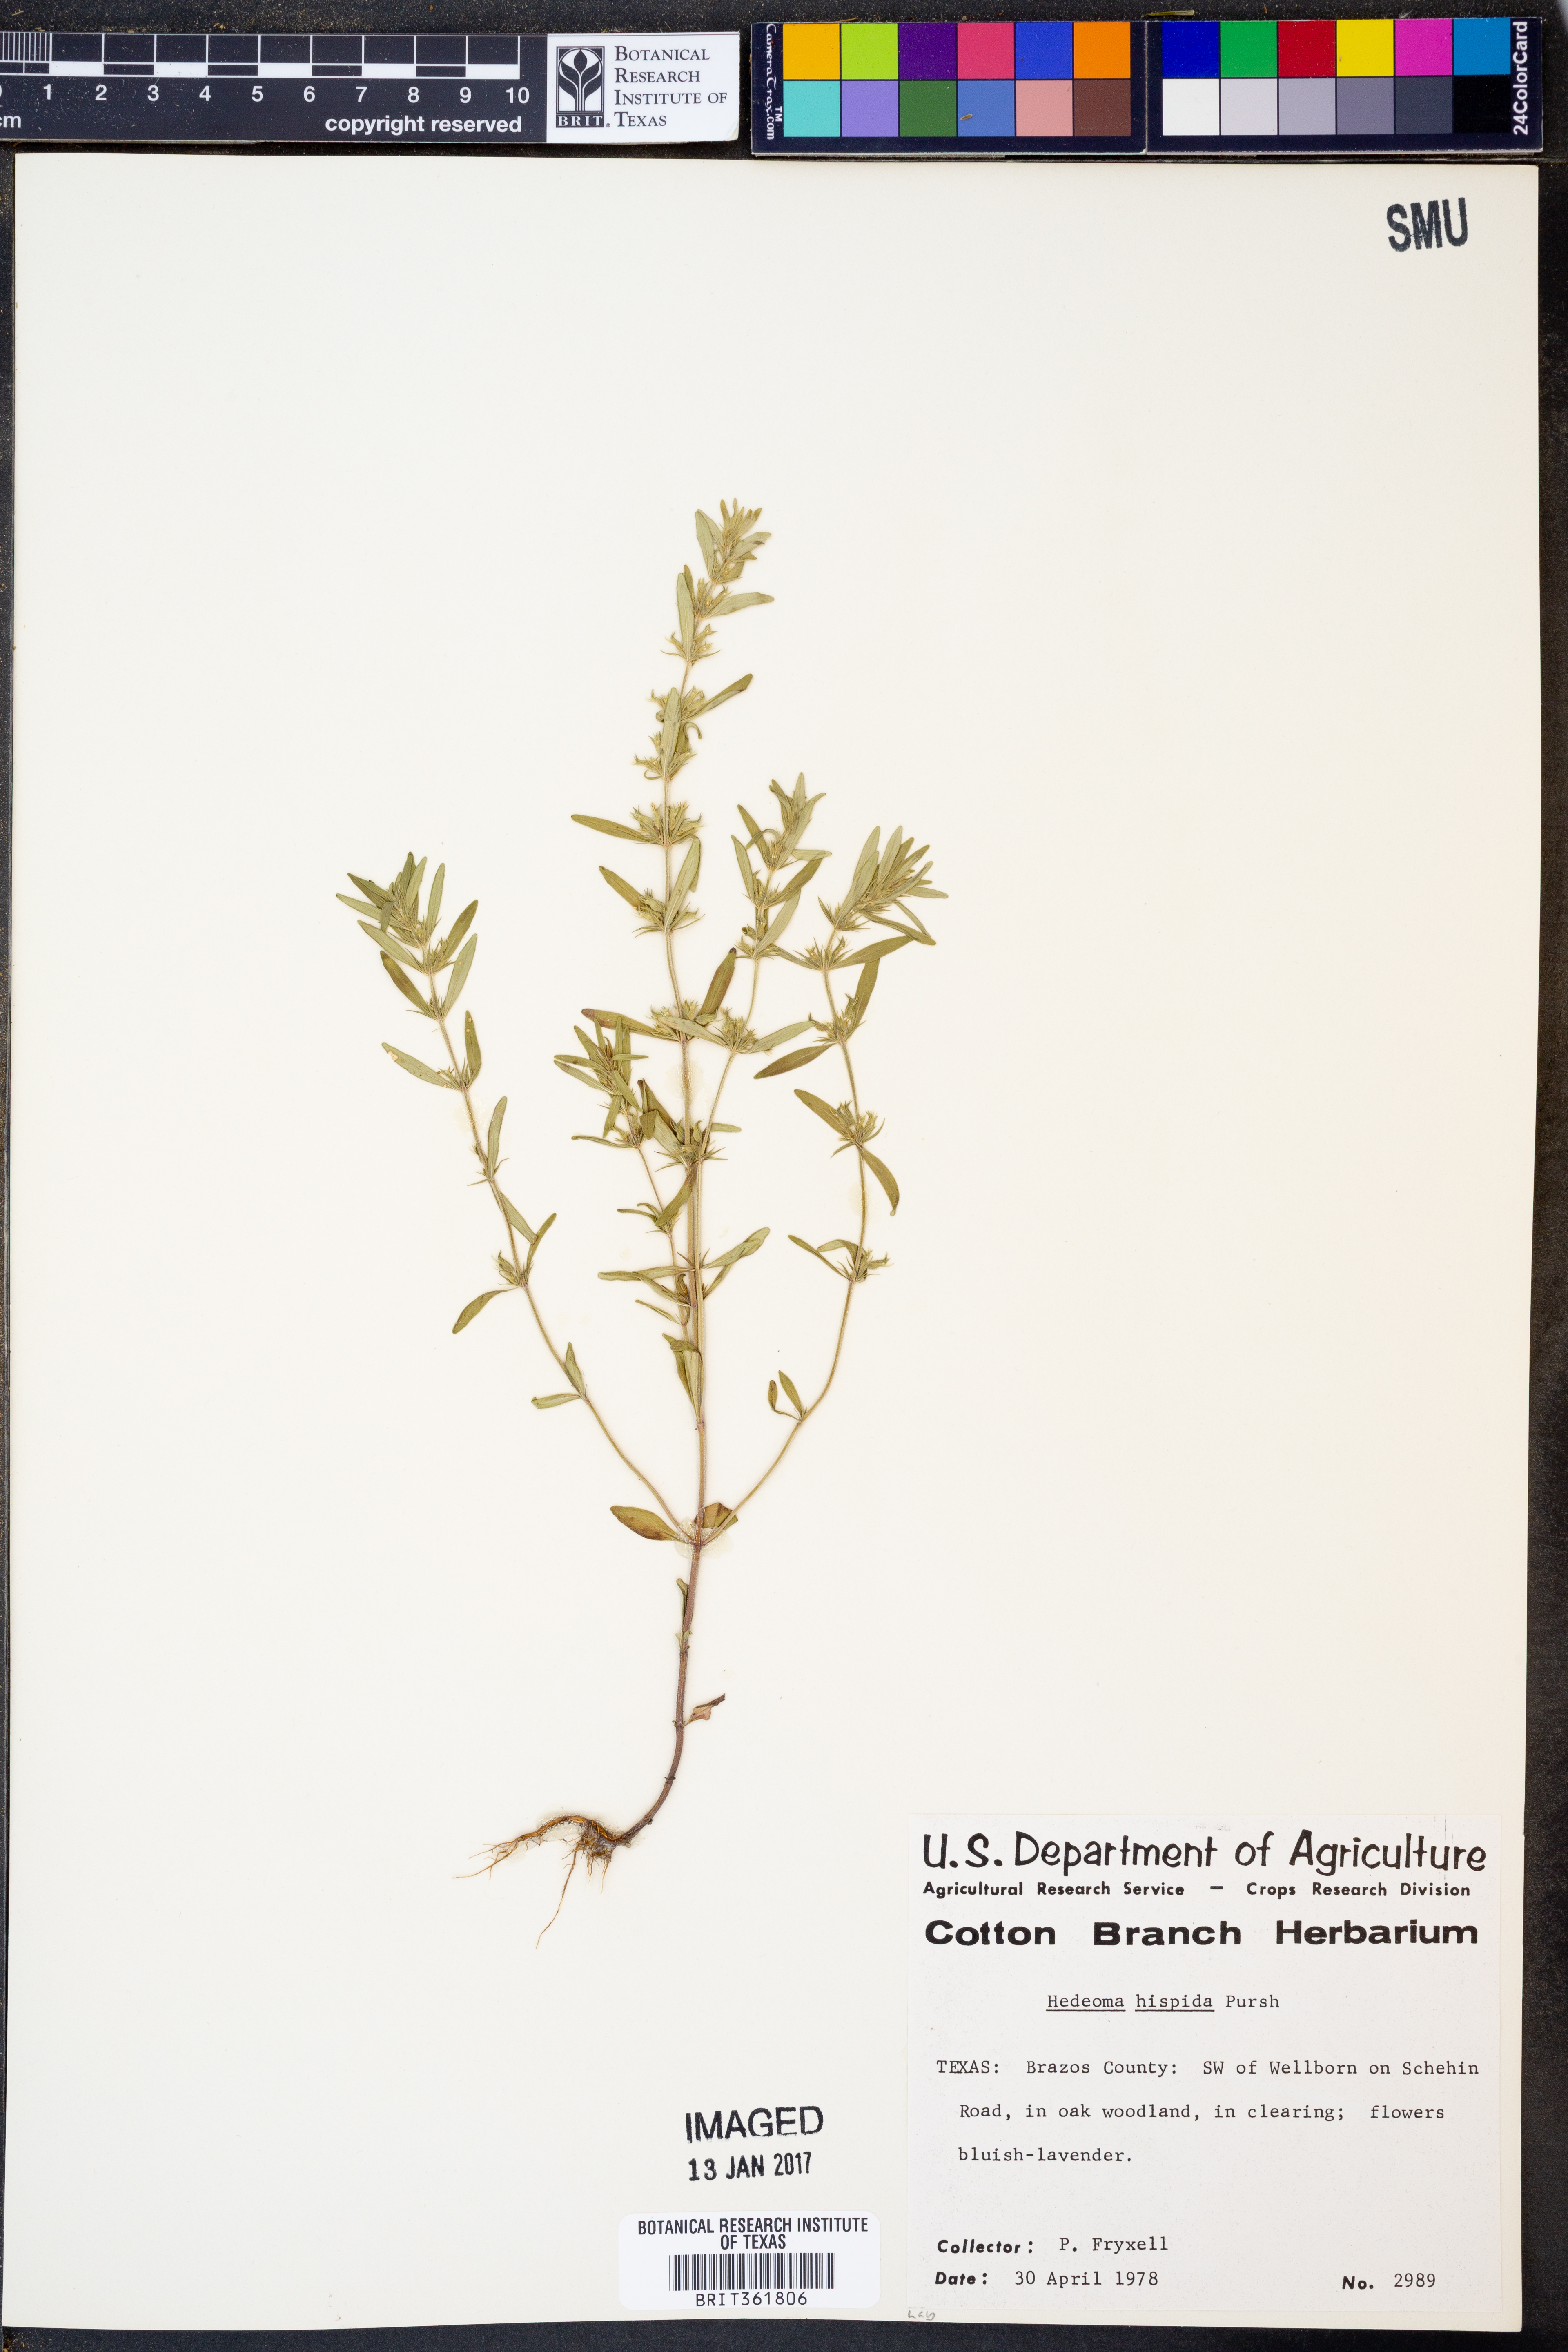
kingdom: Plantae
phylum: Tracheophyta
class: Magnoliopsida
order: Lamiales
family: Lamiaceae
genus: Hedeoma
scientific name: Hedeoma hispida
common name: Mock pennyroyal
